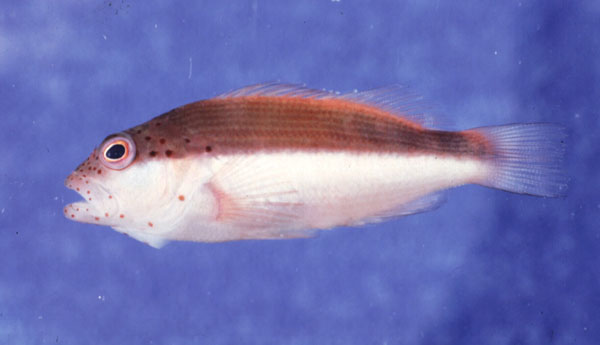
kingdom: Animalia
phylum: Chordata
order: Perciformes
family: Cirrhitidae
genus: Paracirrhites
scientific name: Paracirrhites forsteri
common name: Freckled hawkfish
